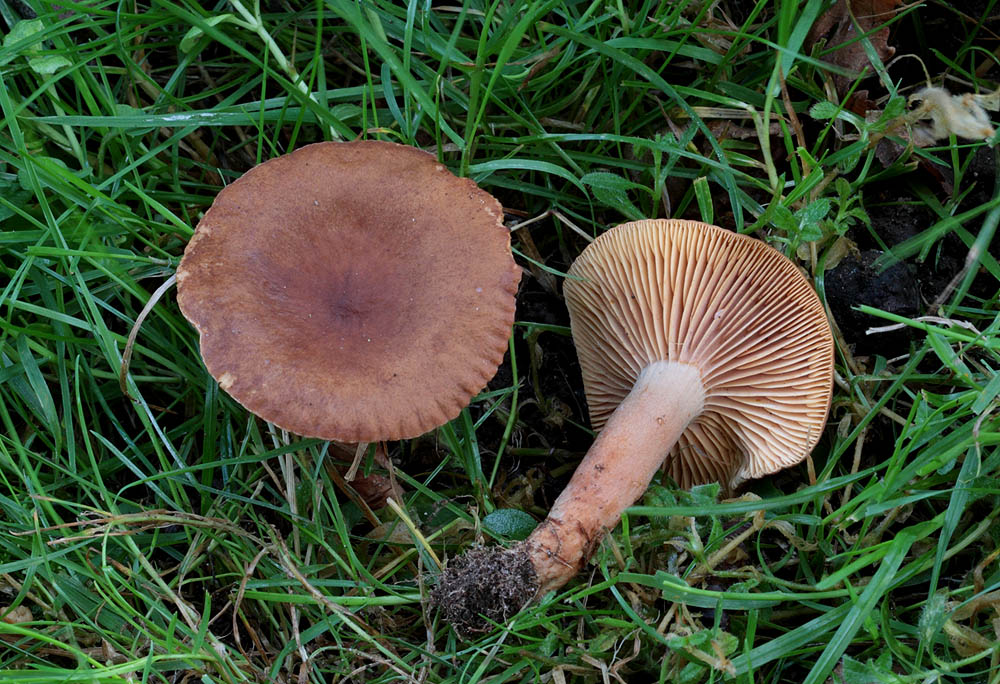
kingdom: Fungi
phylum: Basidiomycota
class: Agaricomycetes
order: Russulales
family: Russulaceae
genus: Lactarius
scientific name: Lactarius serifluus
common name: tæge-mælkehat
